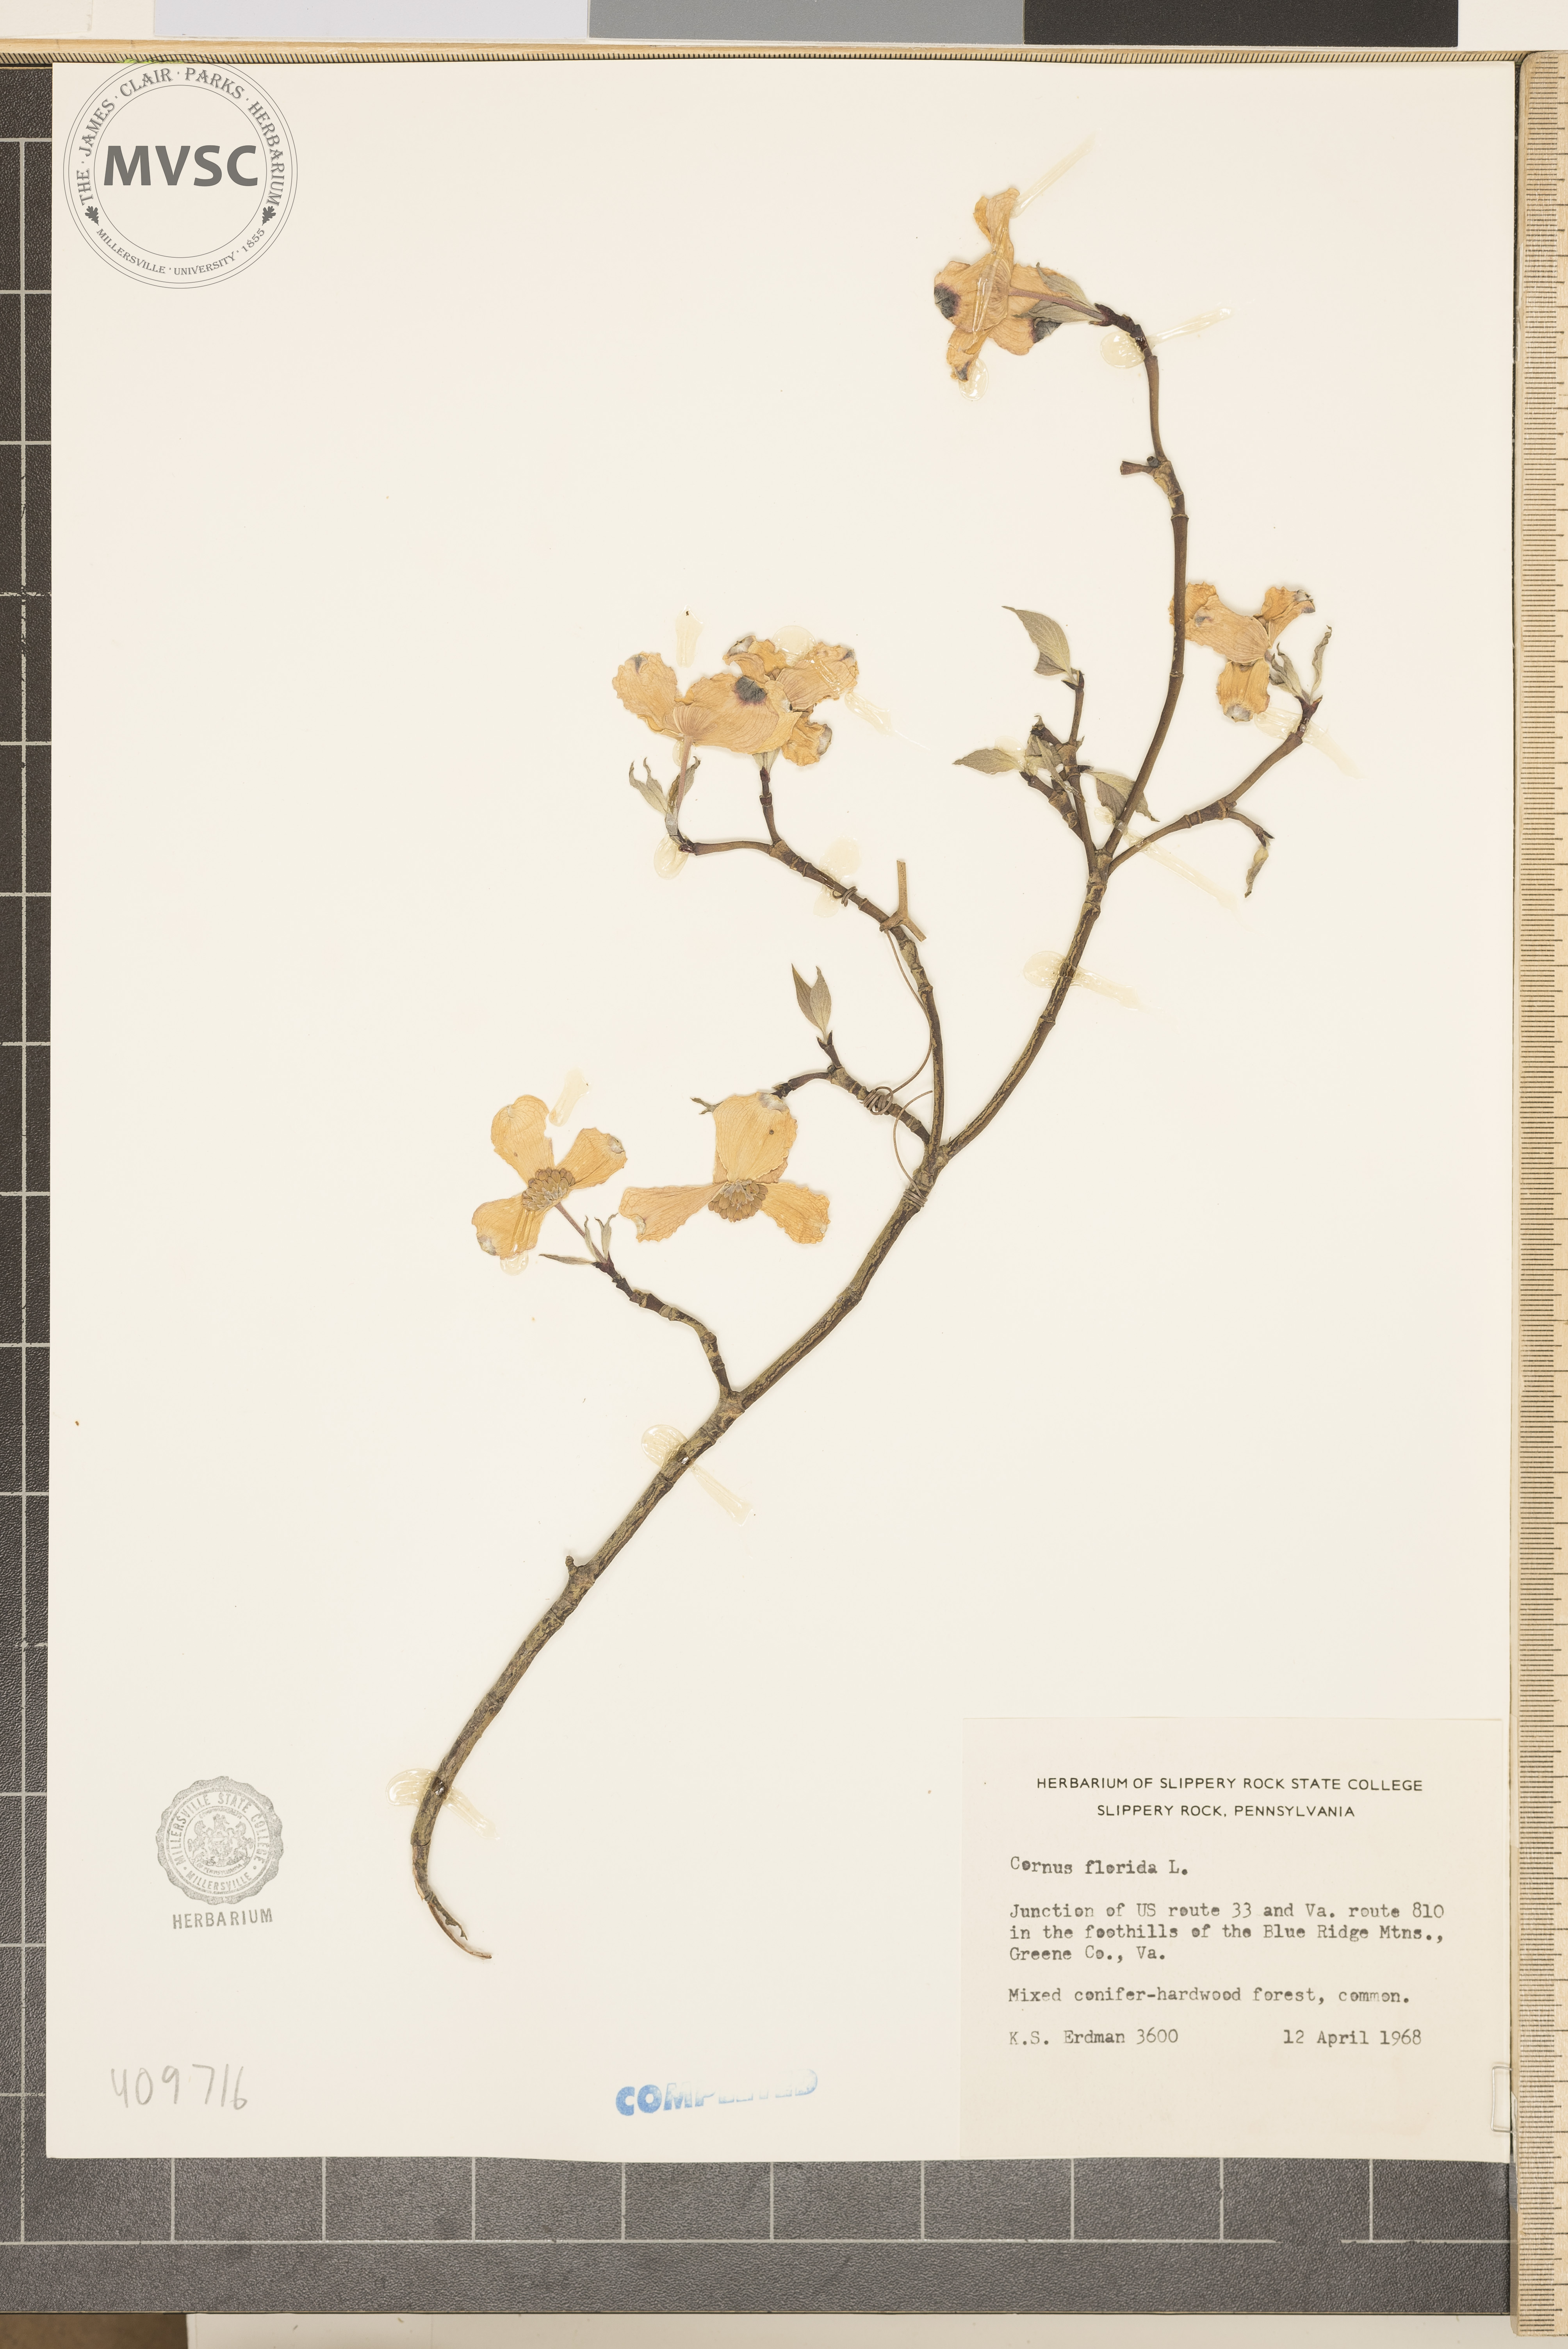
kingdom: Plantae
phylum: Tracheophyta
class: Magnoliopsida
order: Cornales
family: Cornaceae
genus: Cornus
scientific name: Cornus florida
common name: Flowering dogwood
